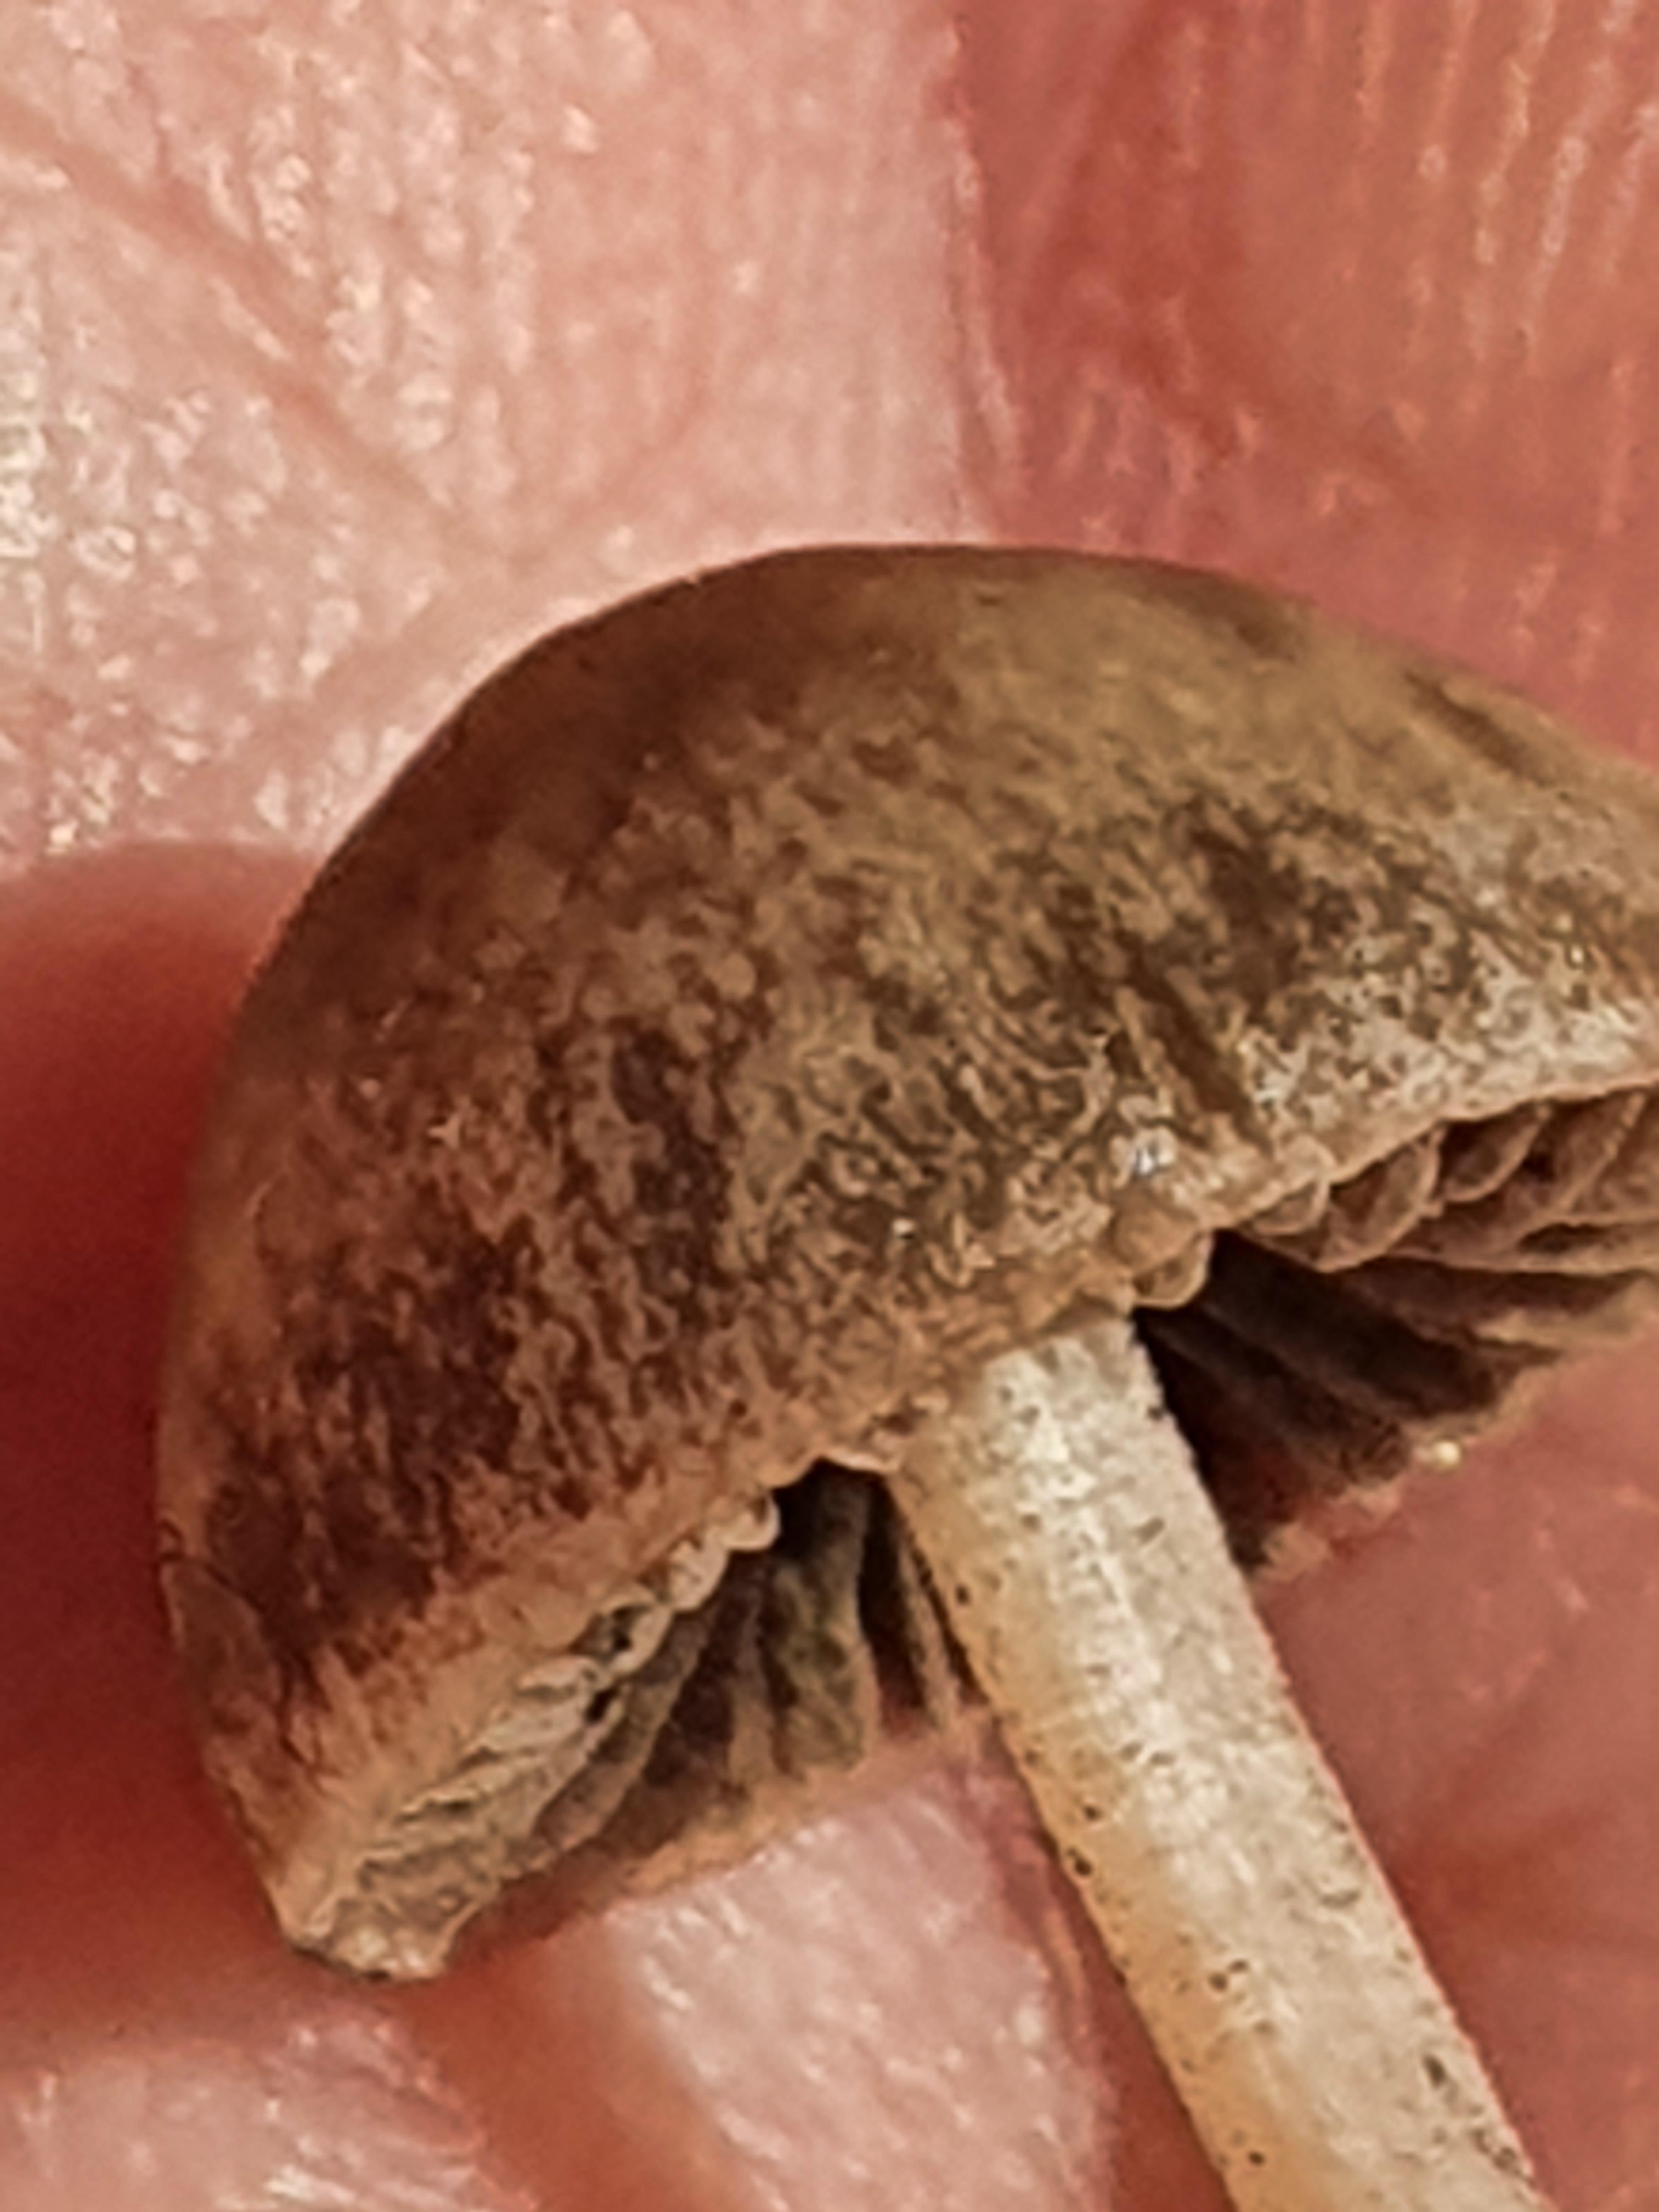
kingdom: Fungi
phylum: Basidiomycota
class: Agaricomycetes
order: Agaricales
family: Bolbitiaceae
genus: Panaeolina
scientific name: Panaeolina foenisecii
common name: høslætsvamp
